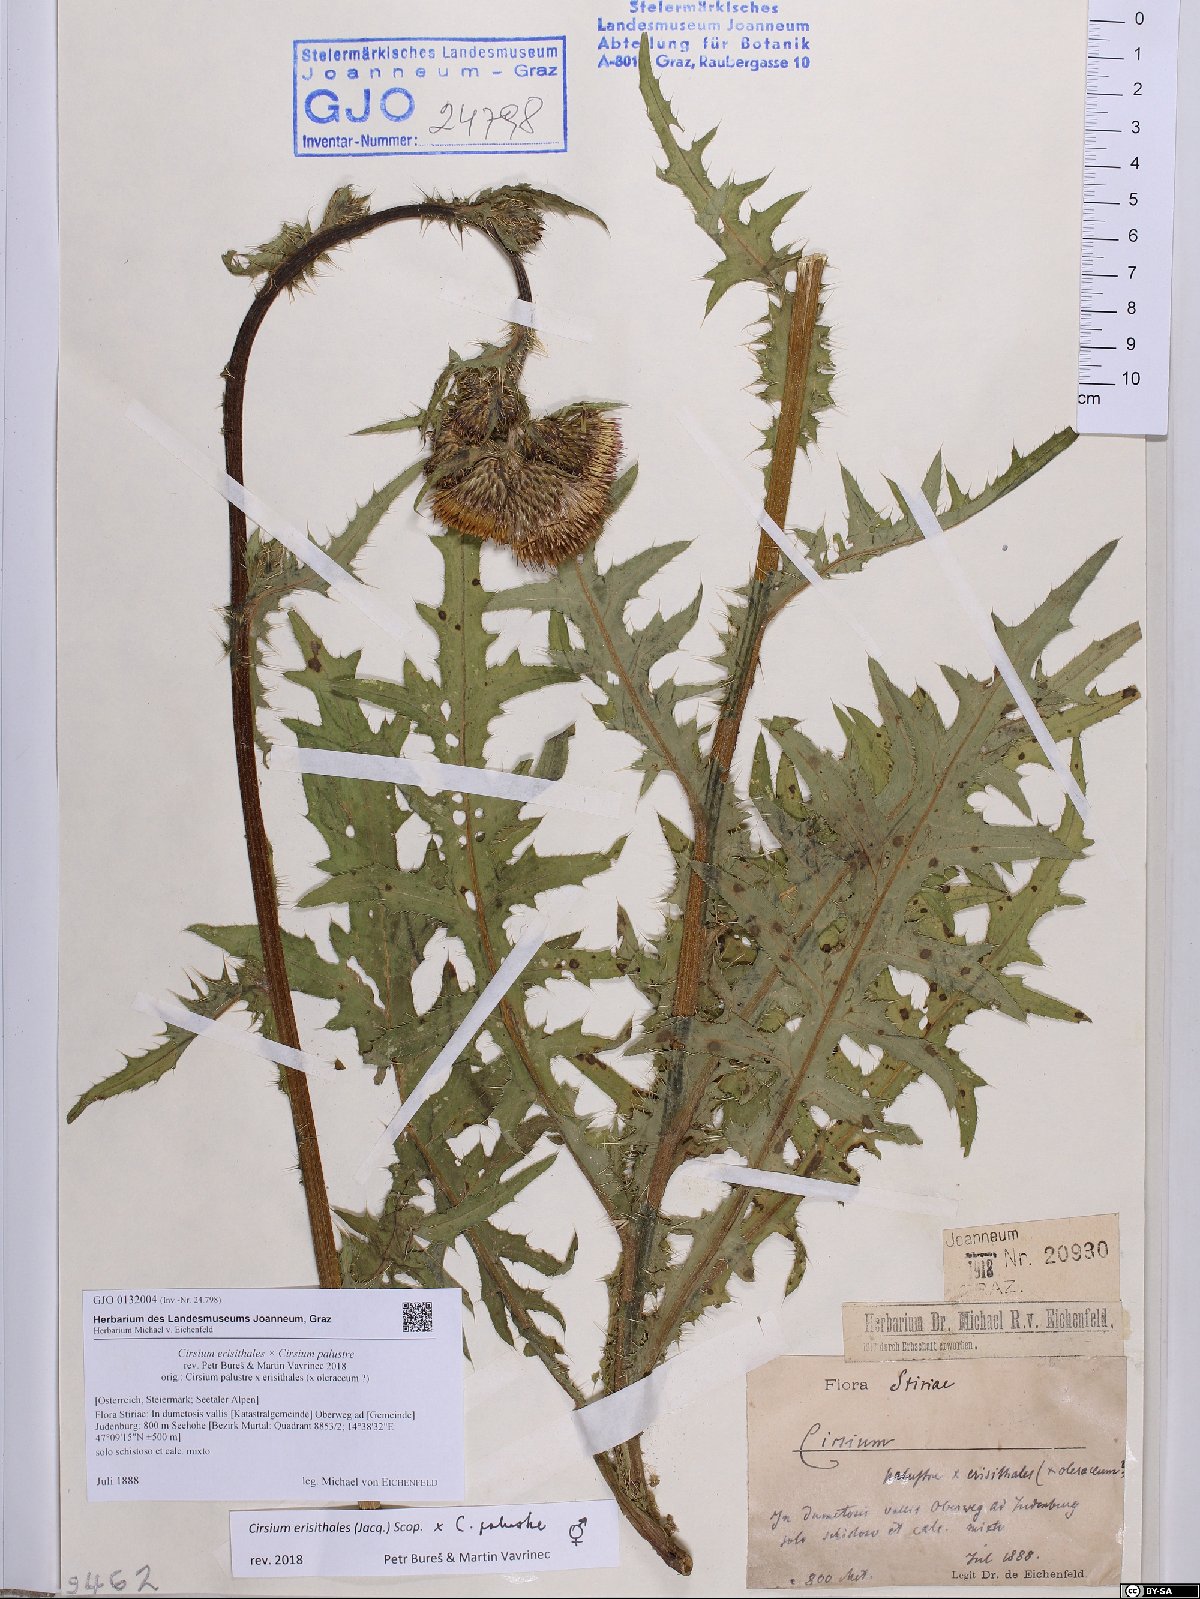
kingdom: Plantae
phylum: Tracheophyta
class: Magnoliopsida
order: Asterales
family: Asteraceae
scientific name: Asteraceae
